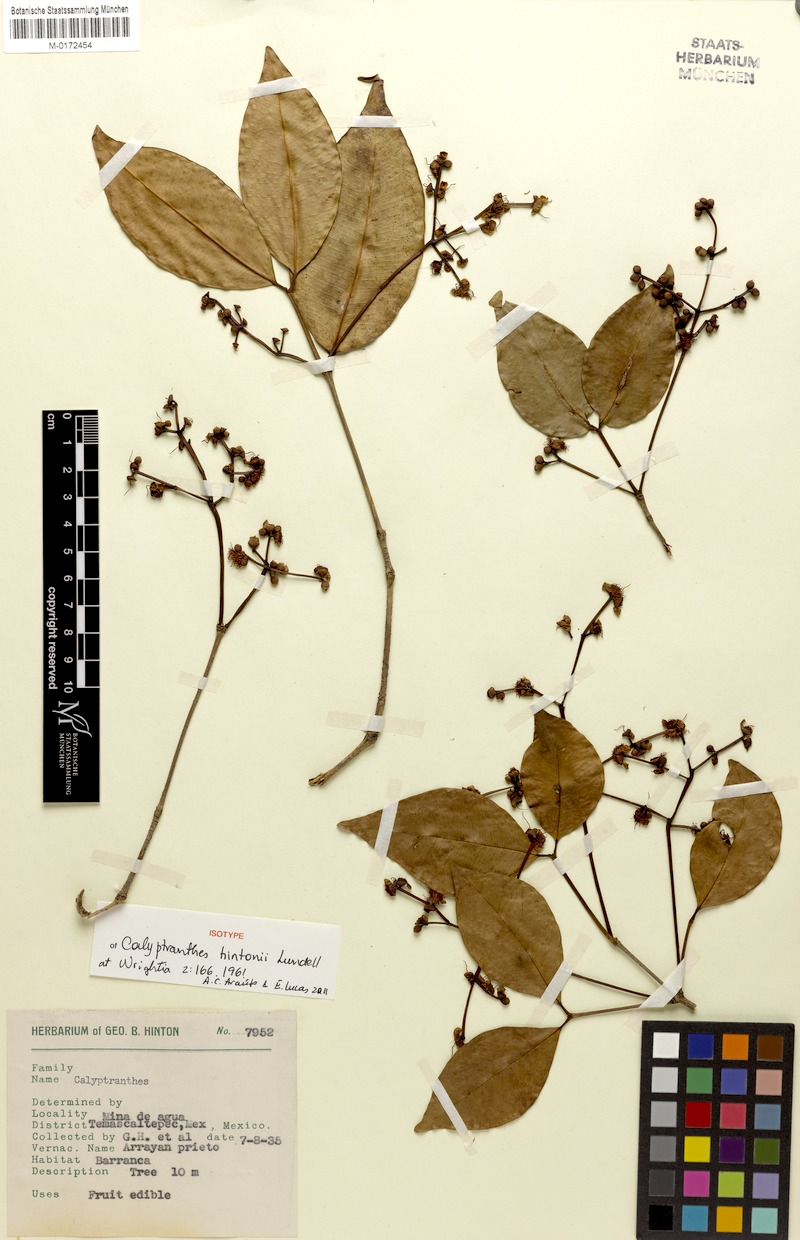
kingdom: Plantae
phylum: Tracheophyta
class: Magnoliopsida
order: Myrtales
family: Myrtaceae
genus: Myrcia
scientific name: Myrcia hintonii
